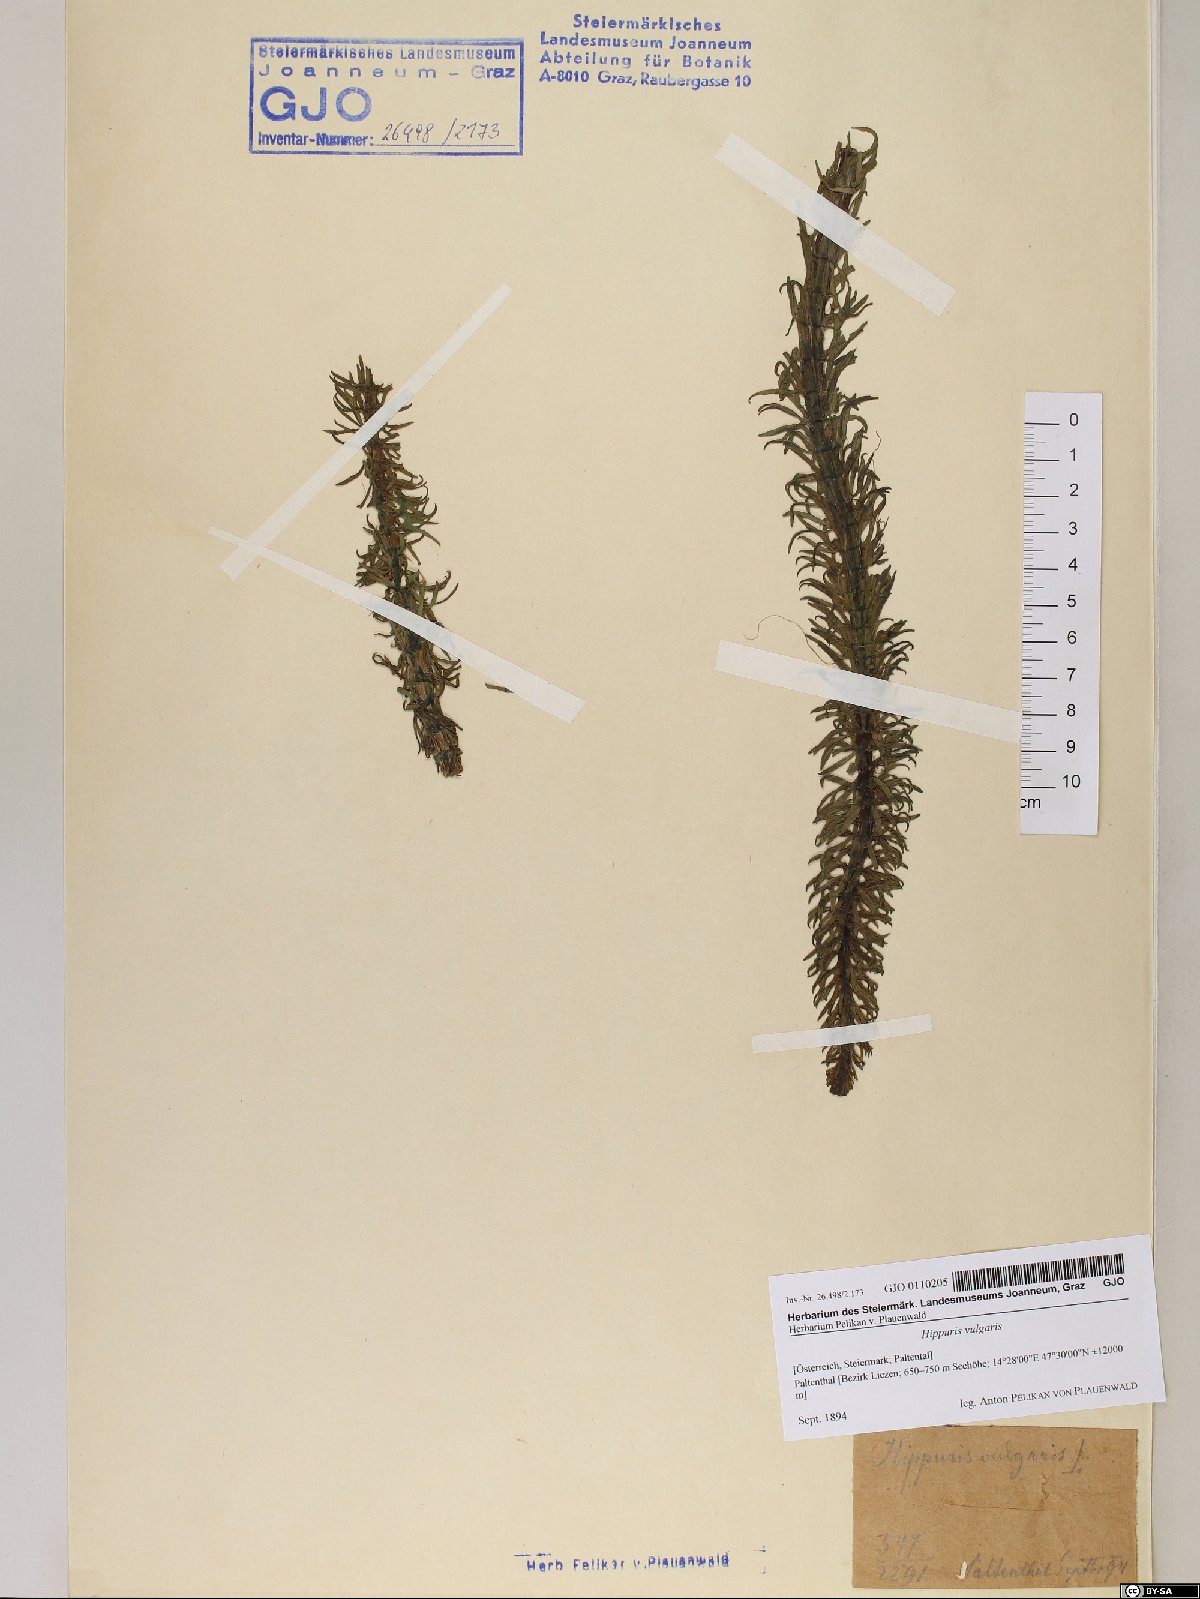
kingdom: Plantae
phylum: Tracheophyta
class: Magnoliopsida
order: Lamiales
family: Plantaginaceae
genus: Hippuris
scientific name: Hippuris vulgaris
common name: Mare's-tail
